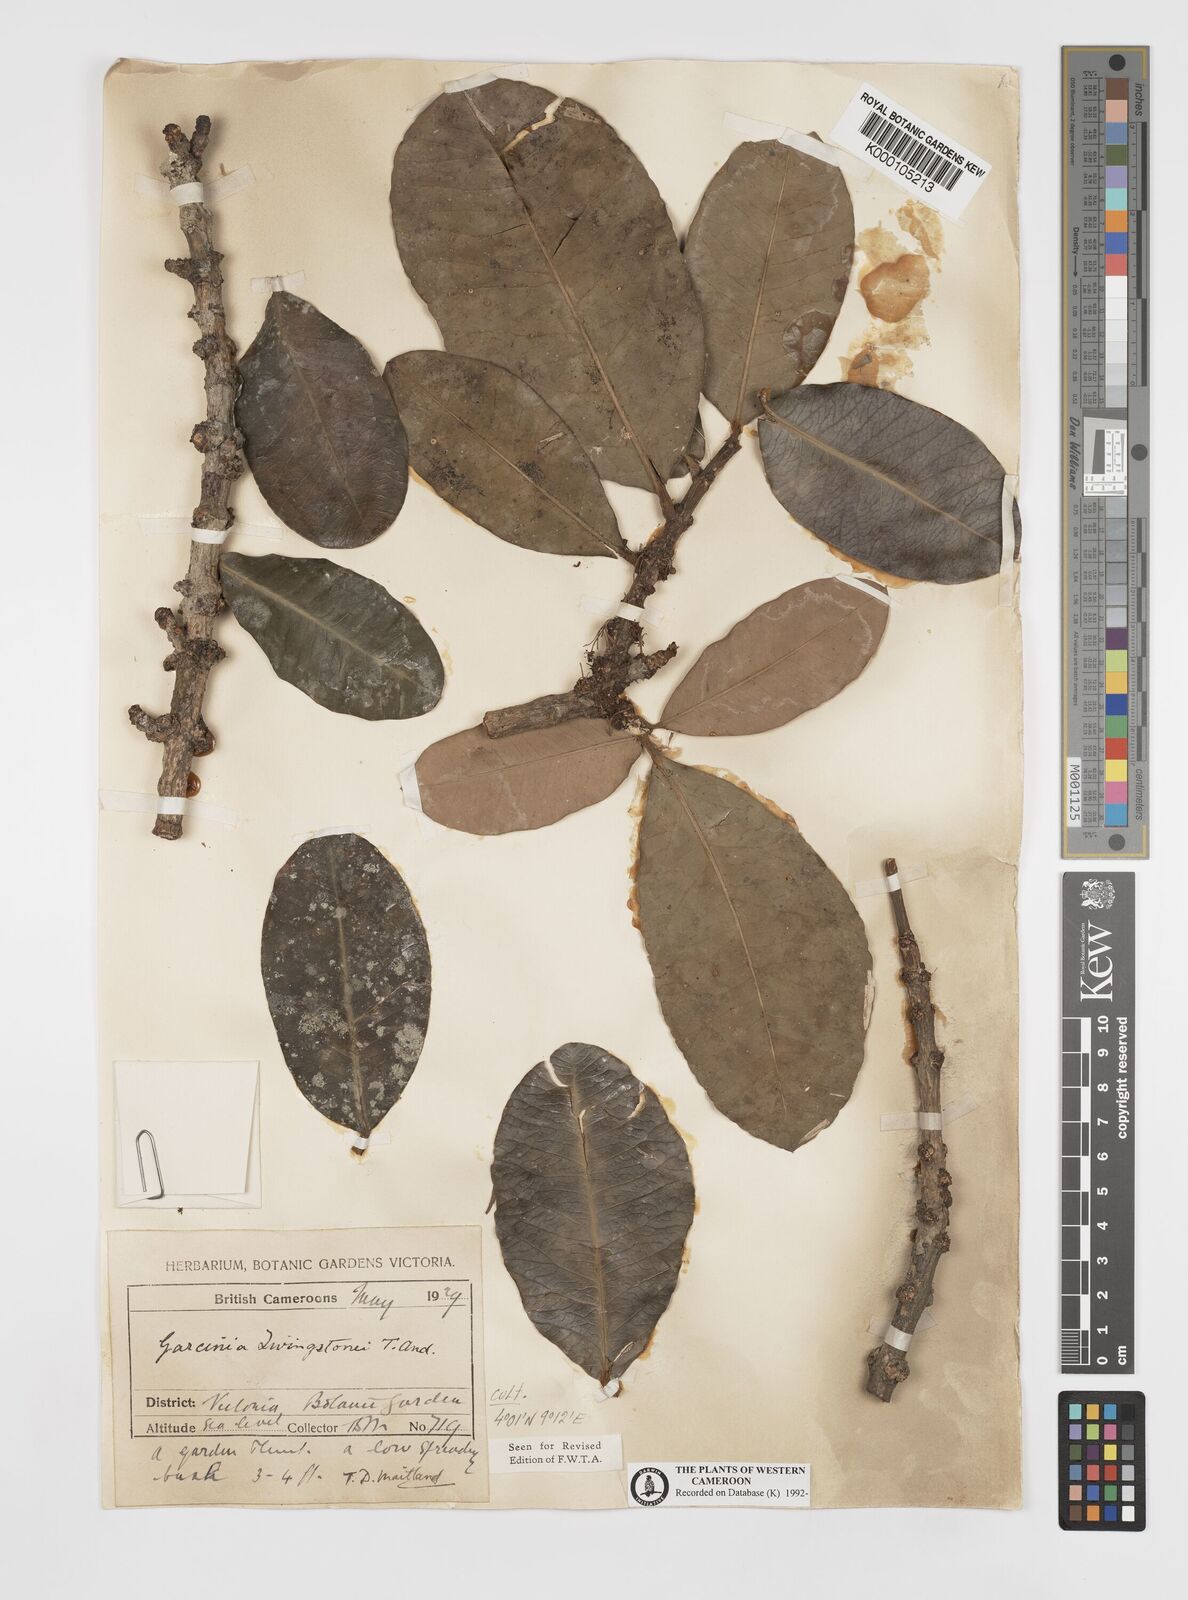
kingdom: Plantae
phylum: Tracheophyta
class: Magnoliopsida
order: Malpighiales
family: Clusiaceae
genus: Garcinia
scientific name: Garcinia livingstonei
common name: African mangosteen
